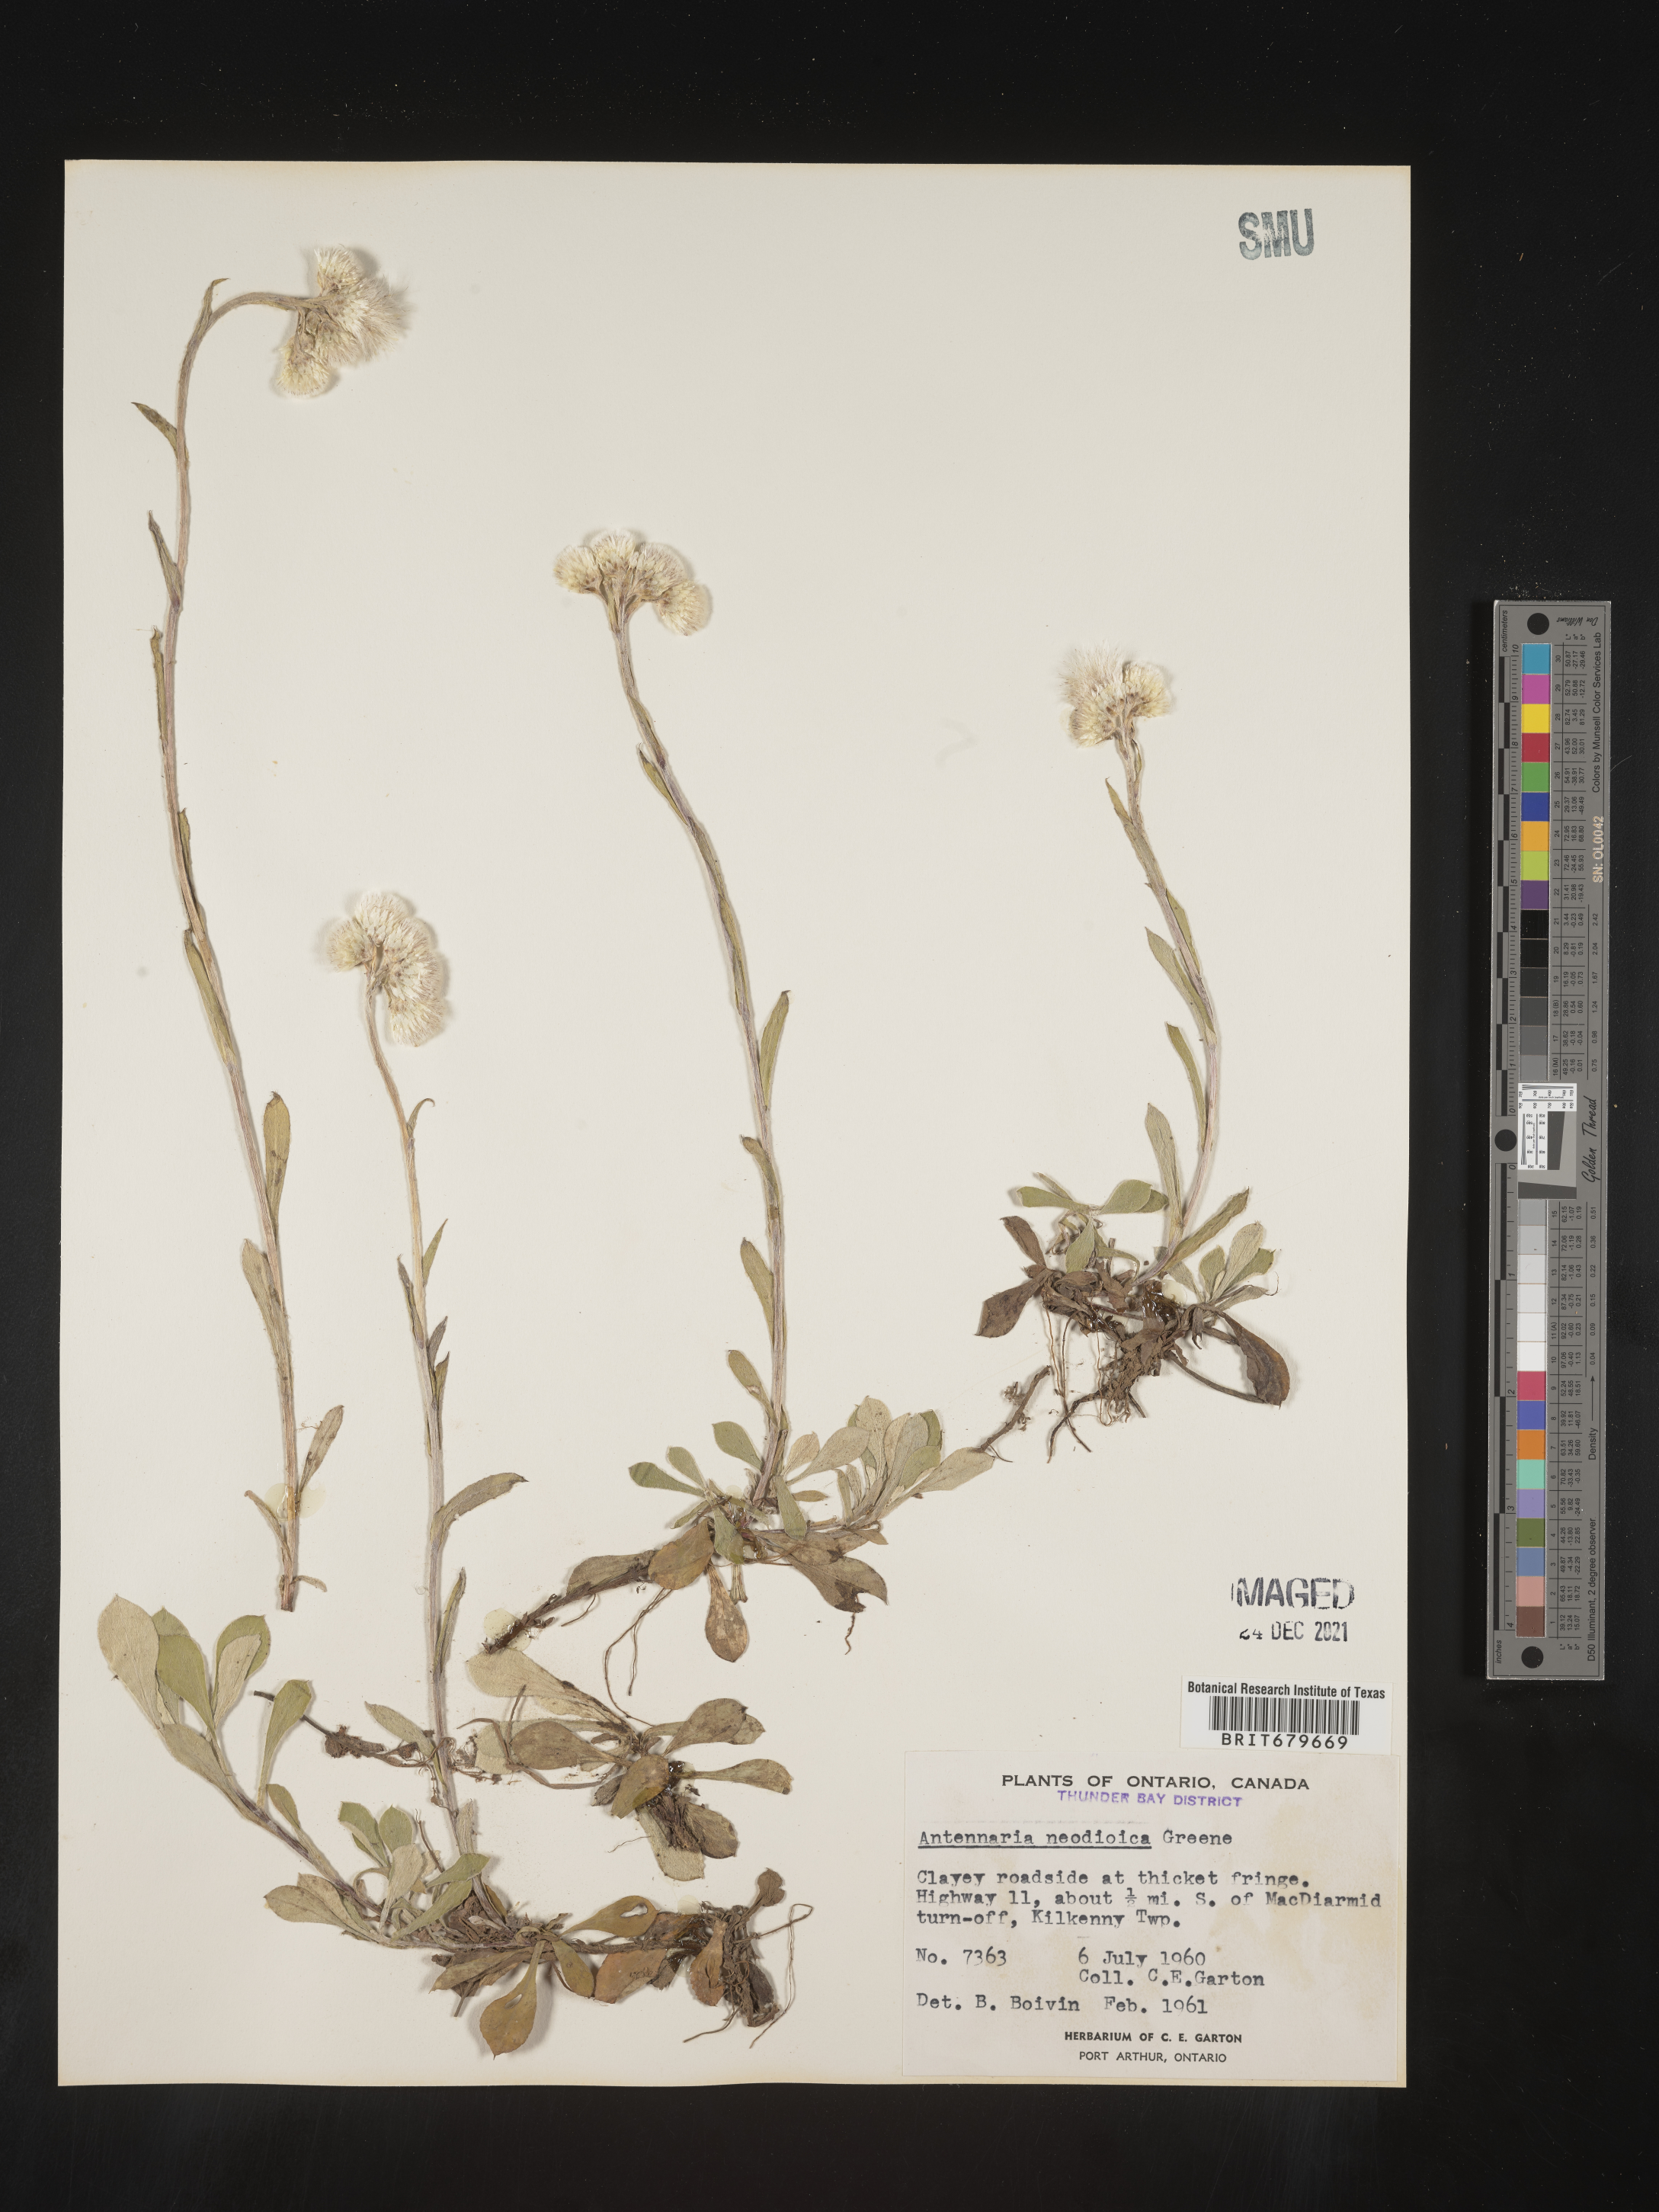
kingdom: Plantae
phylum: Tracheophyta
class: Magnoliopsida
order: Asterales
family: Asteraceae
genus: Antennaria
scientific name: Antennaria howellii
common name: Howell's pussytoes
